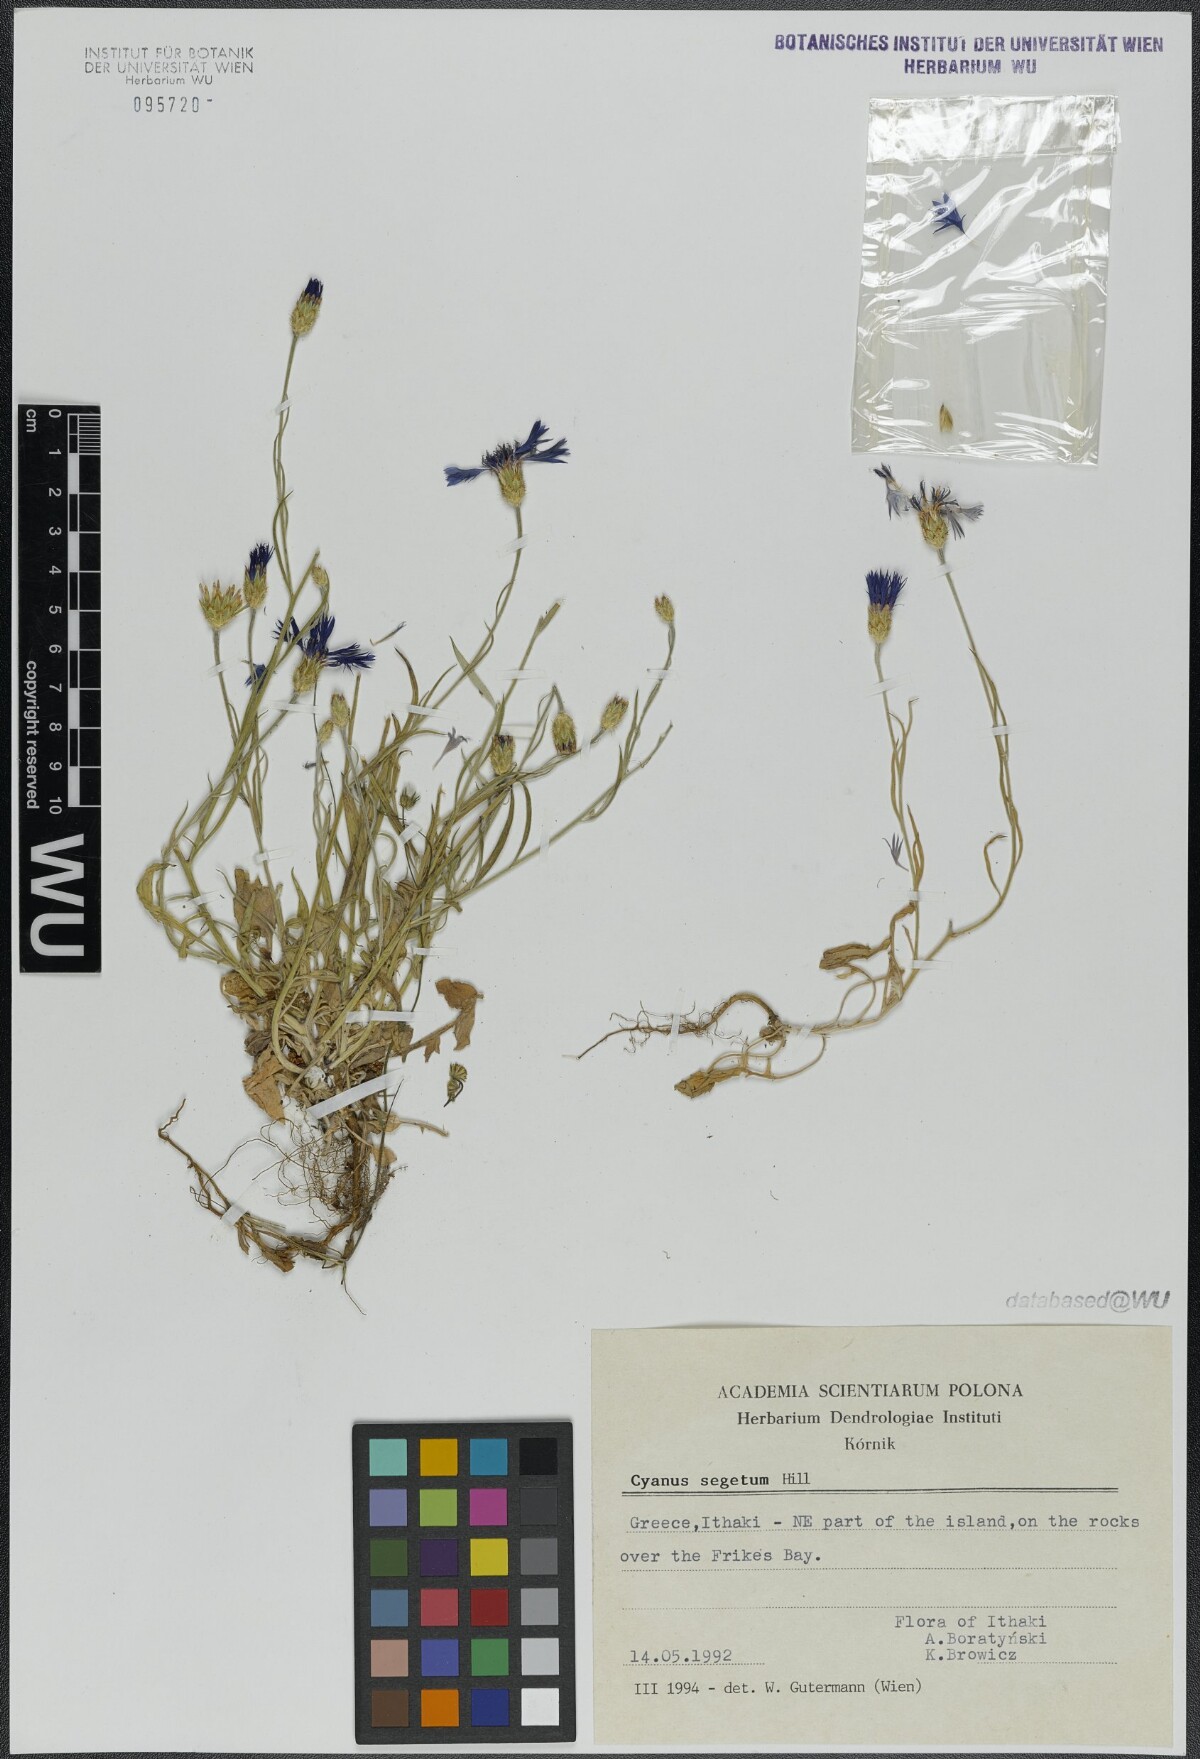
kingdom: Plantae
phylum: Tracheophyta
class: Magnoliopsida
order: Asterales
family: Asteraceae
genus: Centaurea
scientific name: Centaurea cyanus
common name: Cornflower
